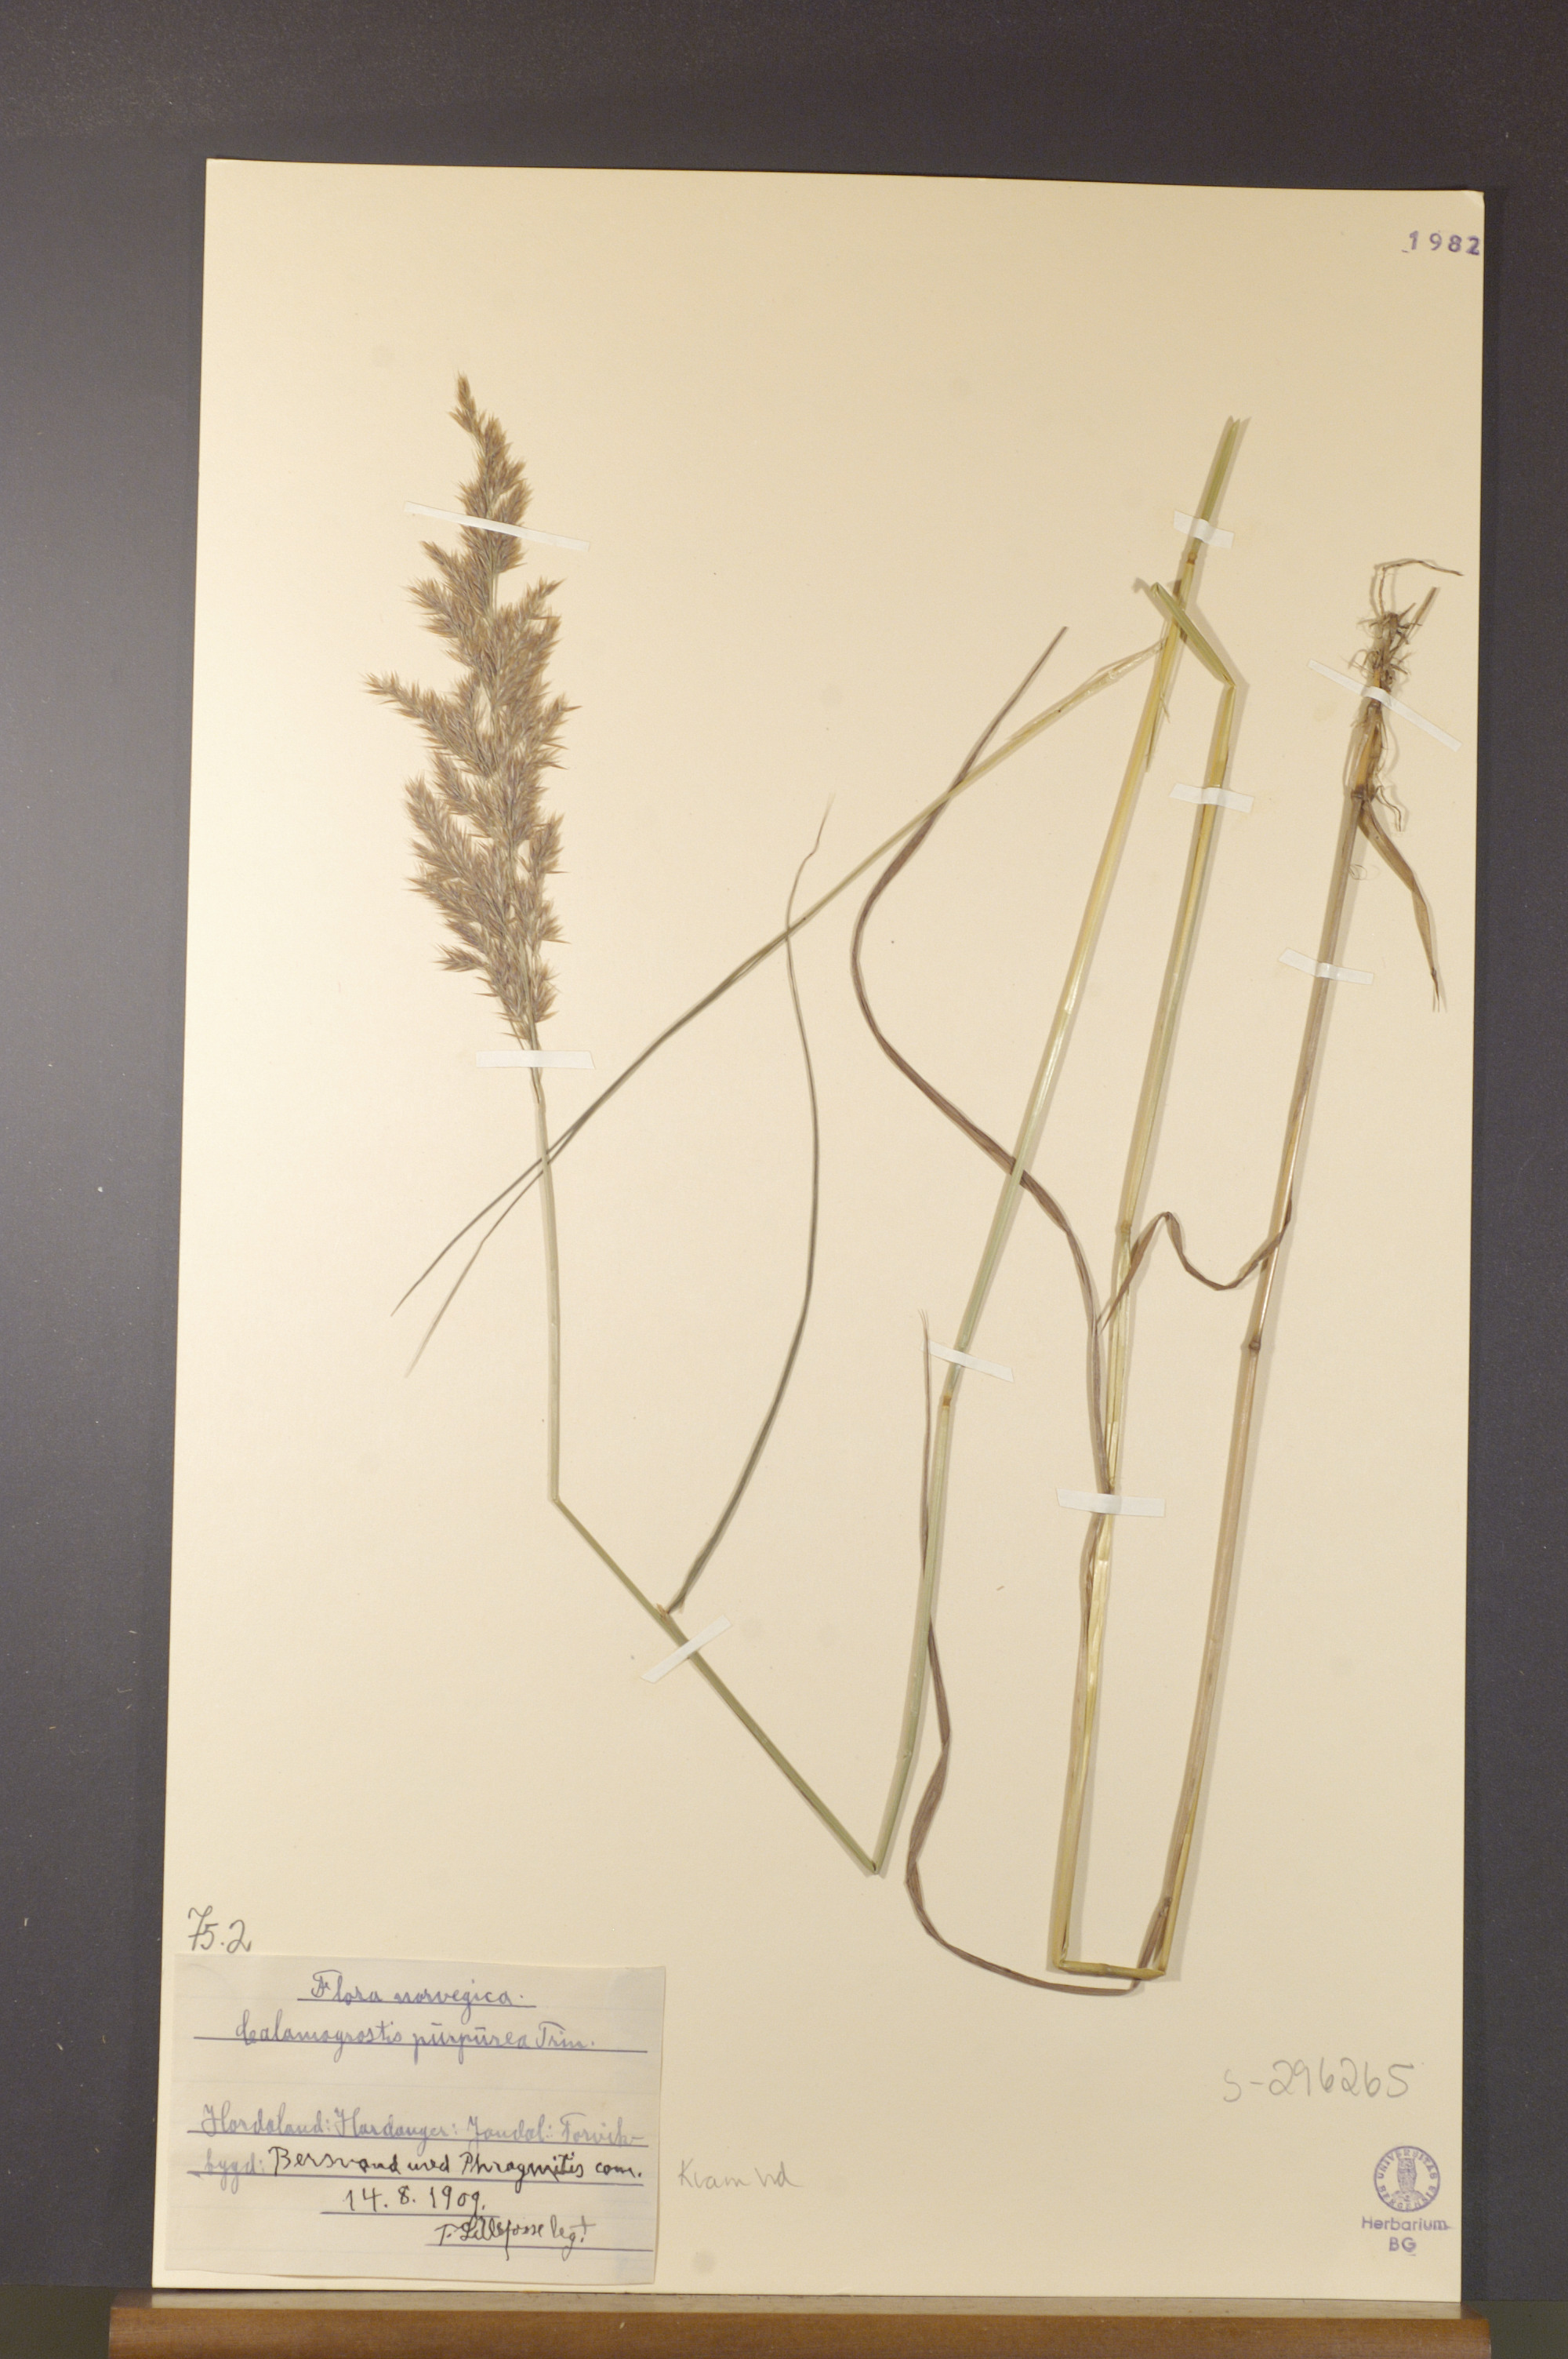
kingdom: Plantae
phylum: Tracheophyta
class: Liliopsida
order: Poales
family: Poaceae
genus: Calamagrostis
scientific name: Calamagrostis purpurea
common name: Scandinavian small-reed
